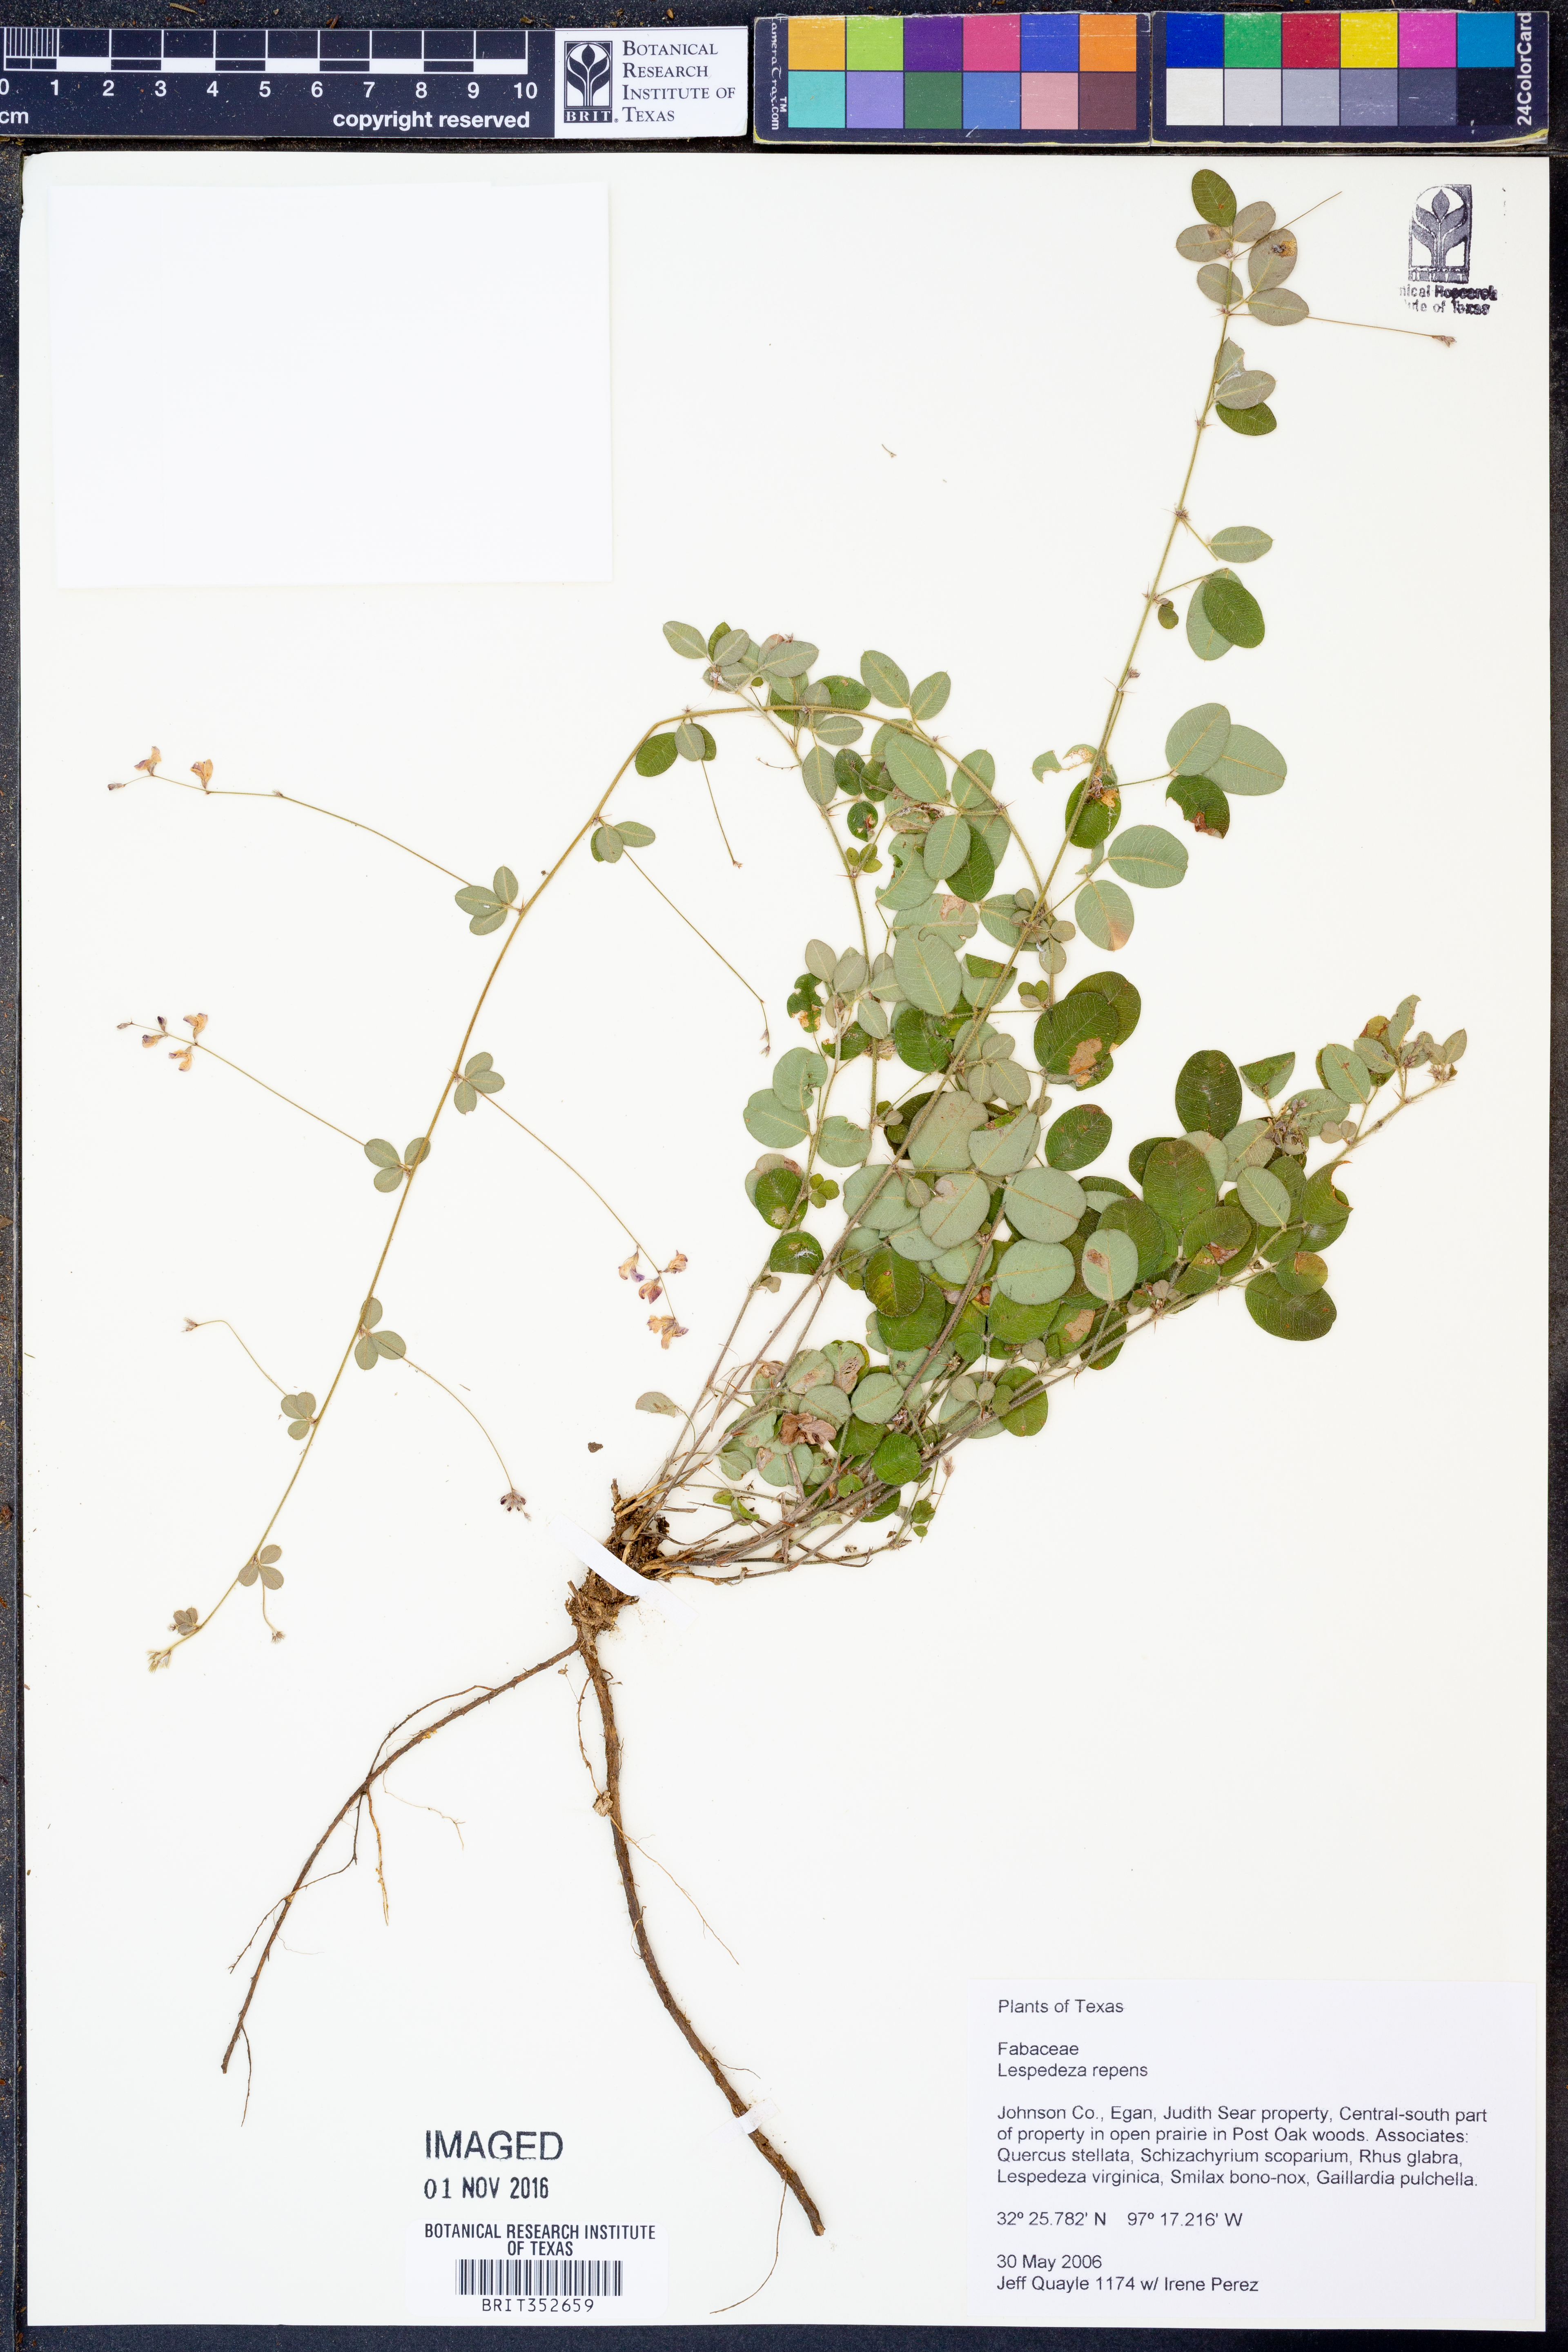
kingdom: Plantae
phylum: Tracheophyta
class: Magnoliopsida
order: Fabales
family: Fabaceae
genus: Lespedeza
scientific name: Lespedeza repens
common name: Creeping bush-clover
